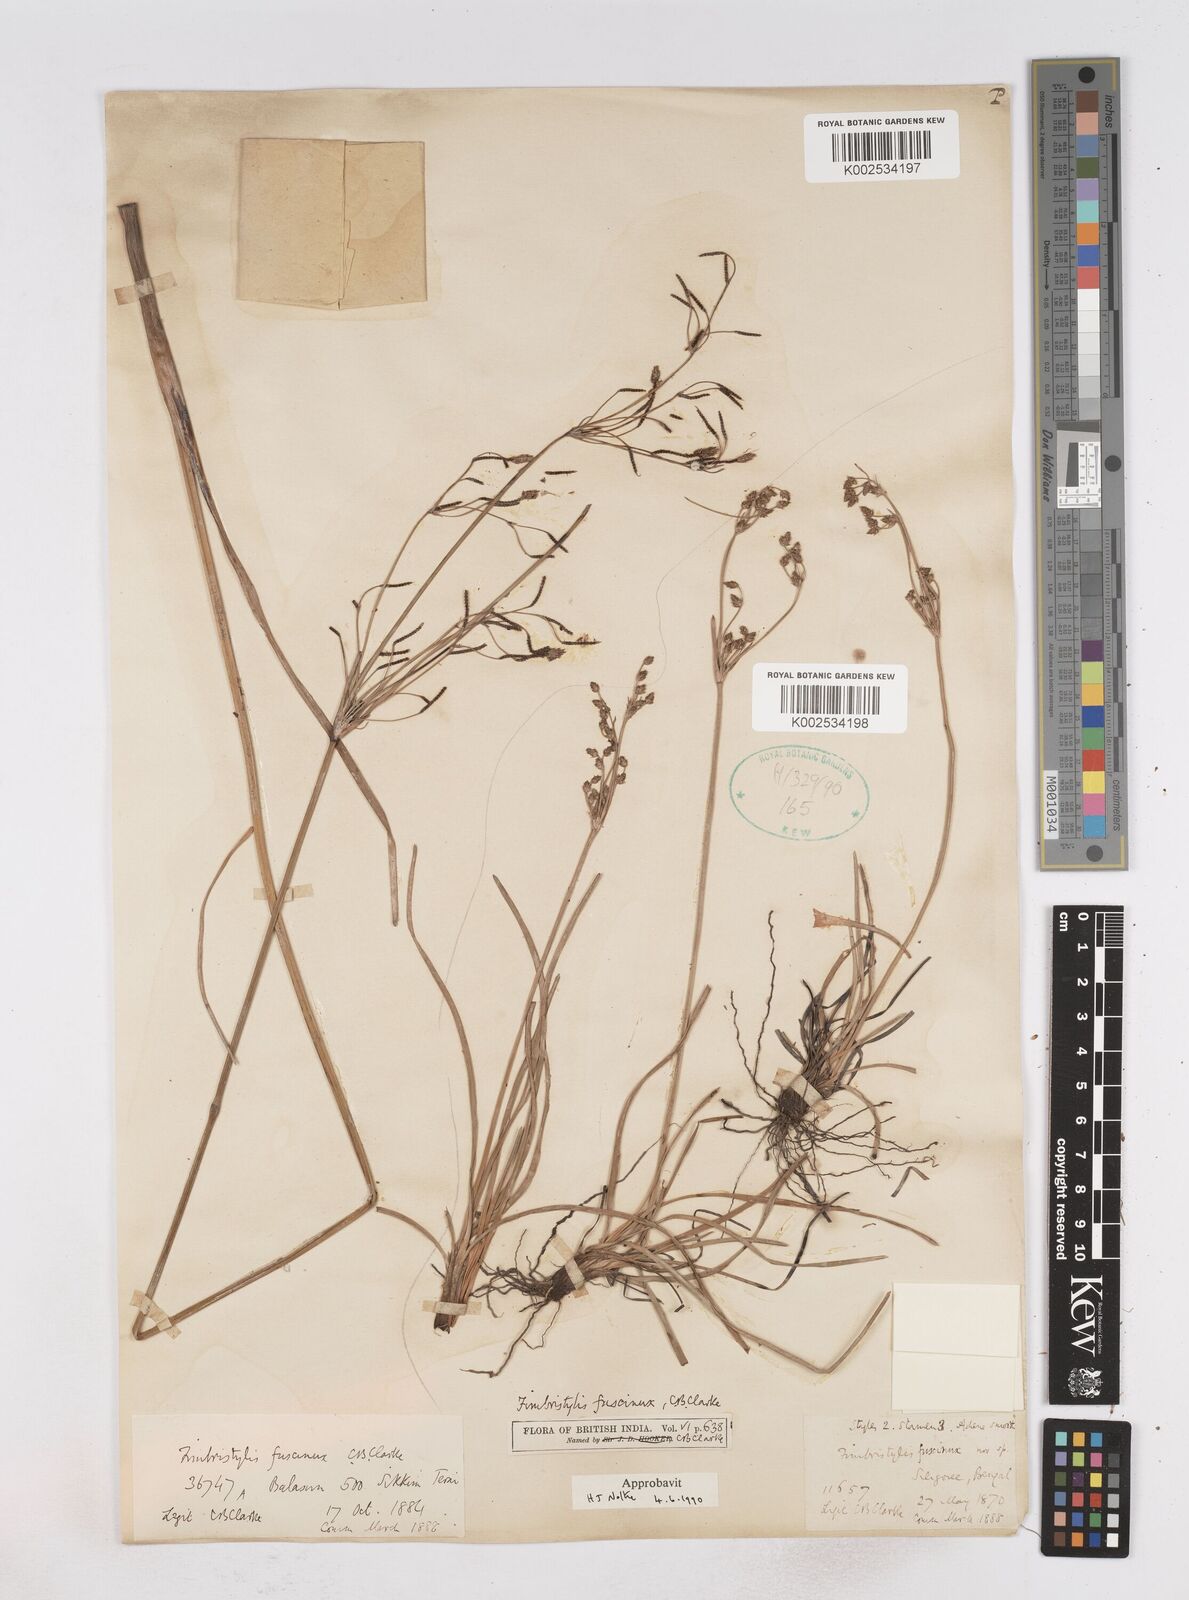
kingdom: Plantae
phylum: Tracheophyta
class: Liliopsida
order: Poales
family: Cyperaceae
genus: Fimbristylis
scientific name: Fimbristylis fuscinux
